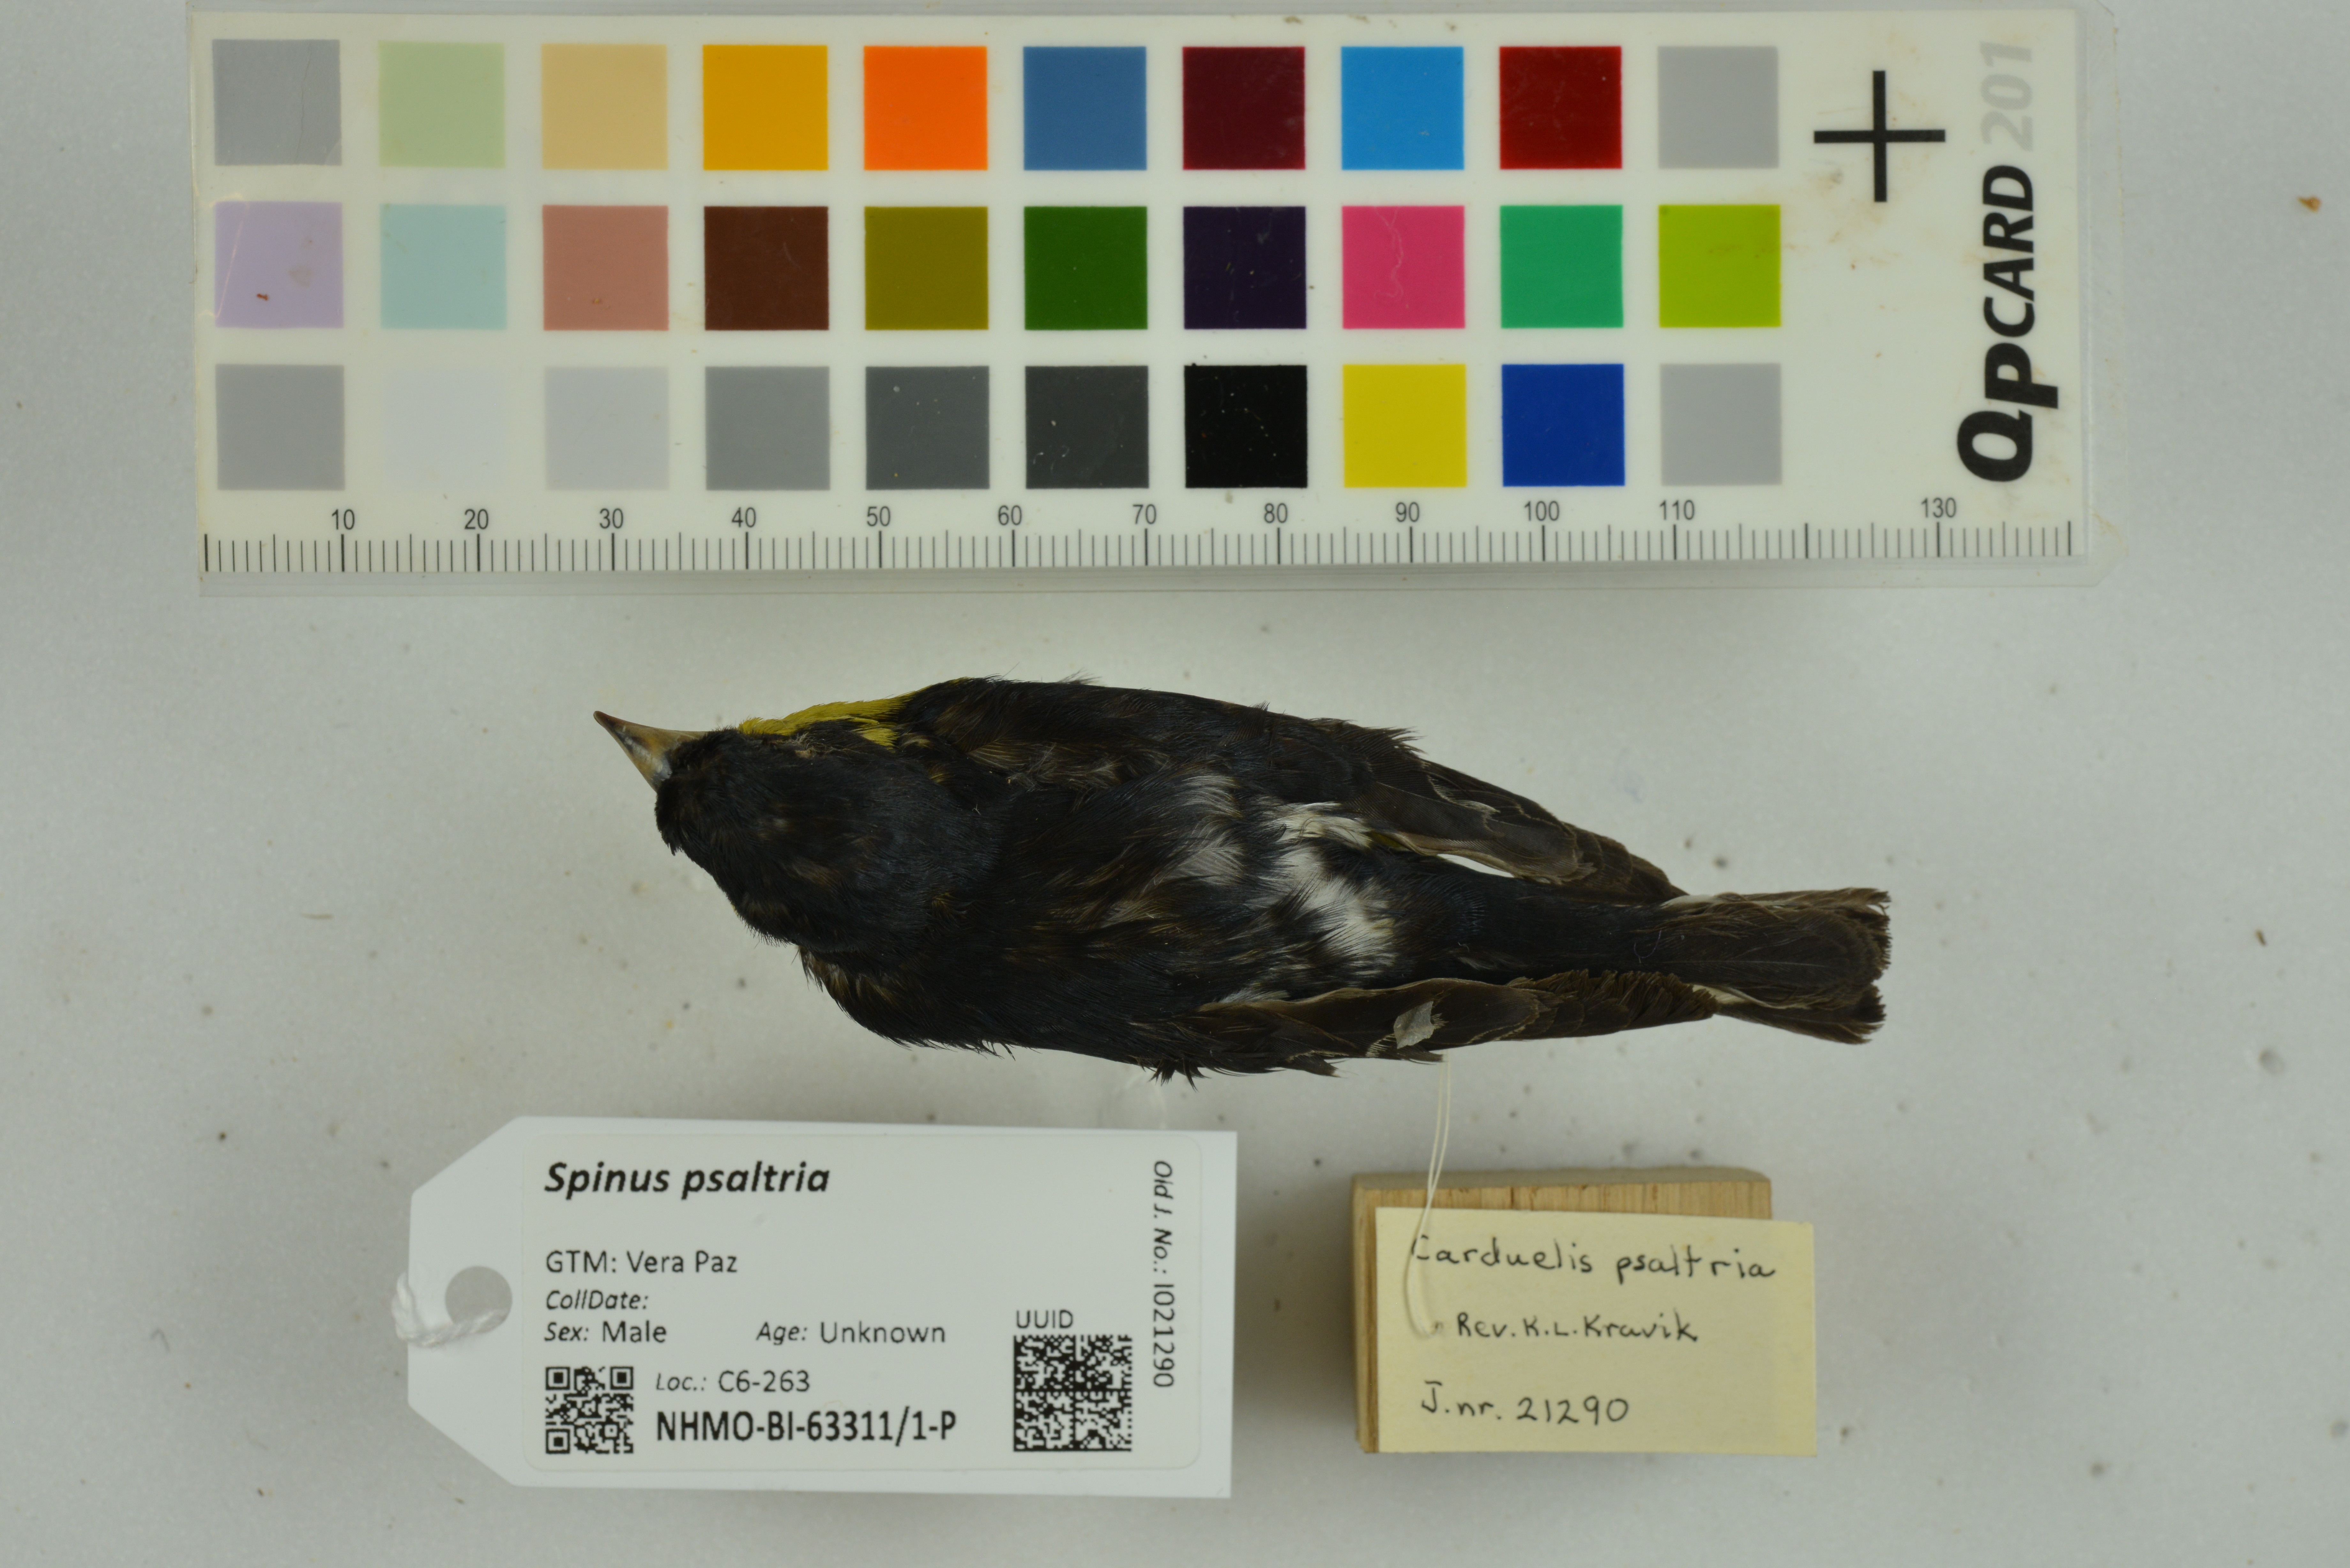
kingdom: Animalia
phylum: Chordata
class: Aves
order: Passeriformes
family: Fringillidae
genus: Spinus
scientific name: Spinus psaltria
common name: Lesser goldfinch
